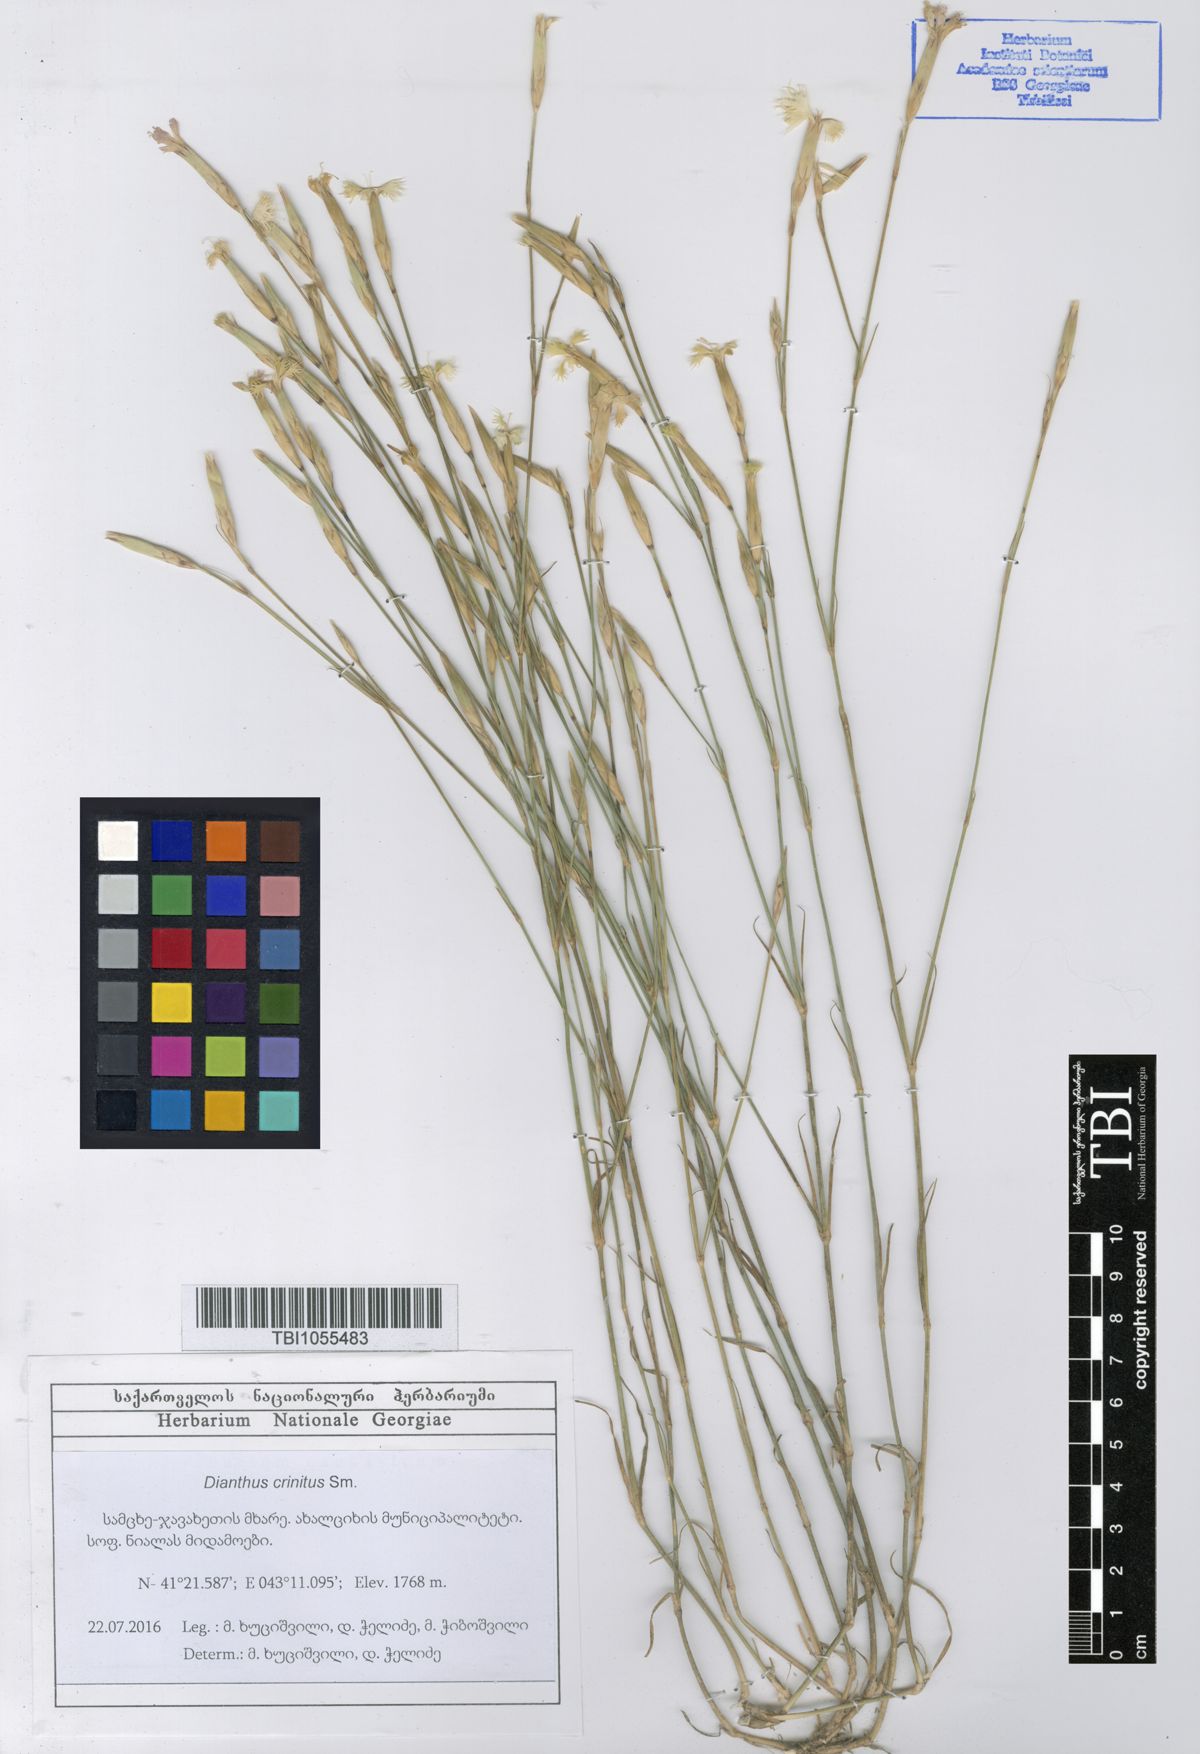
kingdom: Plantae
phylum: Tracheophyta
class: Magnoliopsida
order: Caryophyllales
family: Caryophyllaceae
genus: Dianthus
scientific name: Dianthus crinitus
